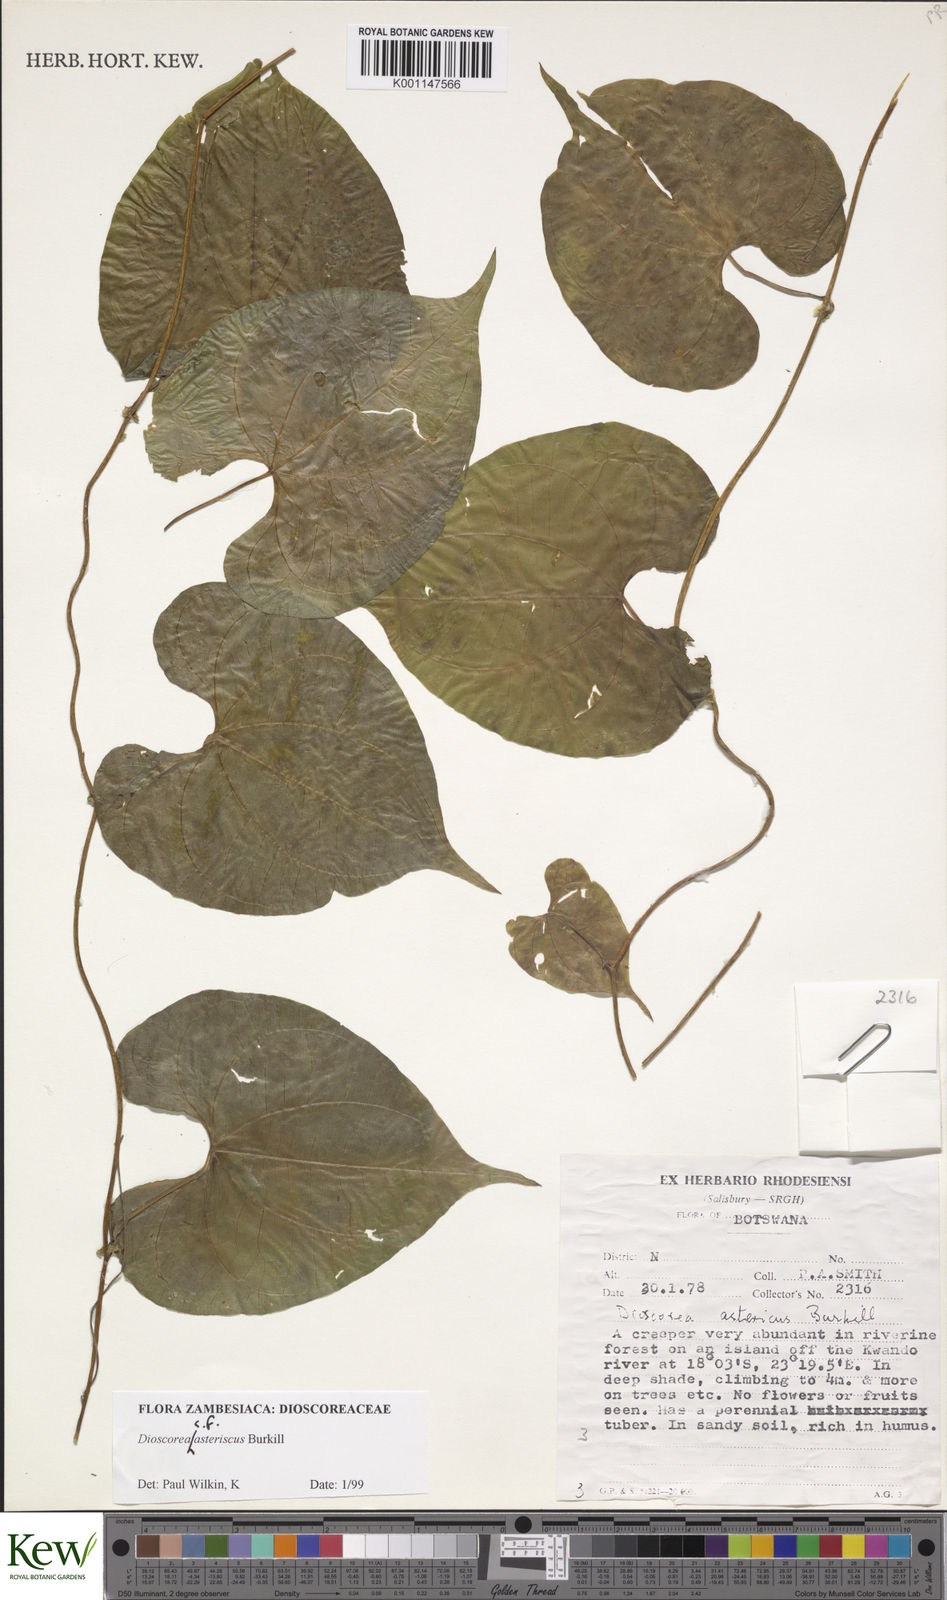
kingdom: Plantae
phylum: Tracheophyta
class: Liliopsida
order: Dioscoreales
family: Dioscoreaceae
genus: Dioscorea
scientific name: Dioscorea asteriscus
